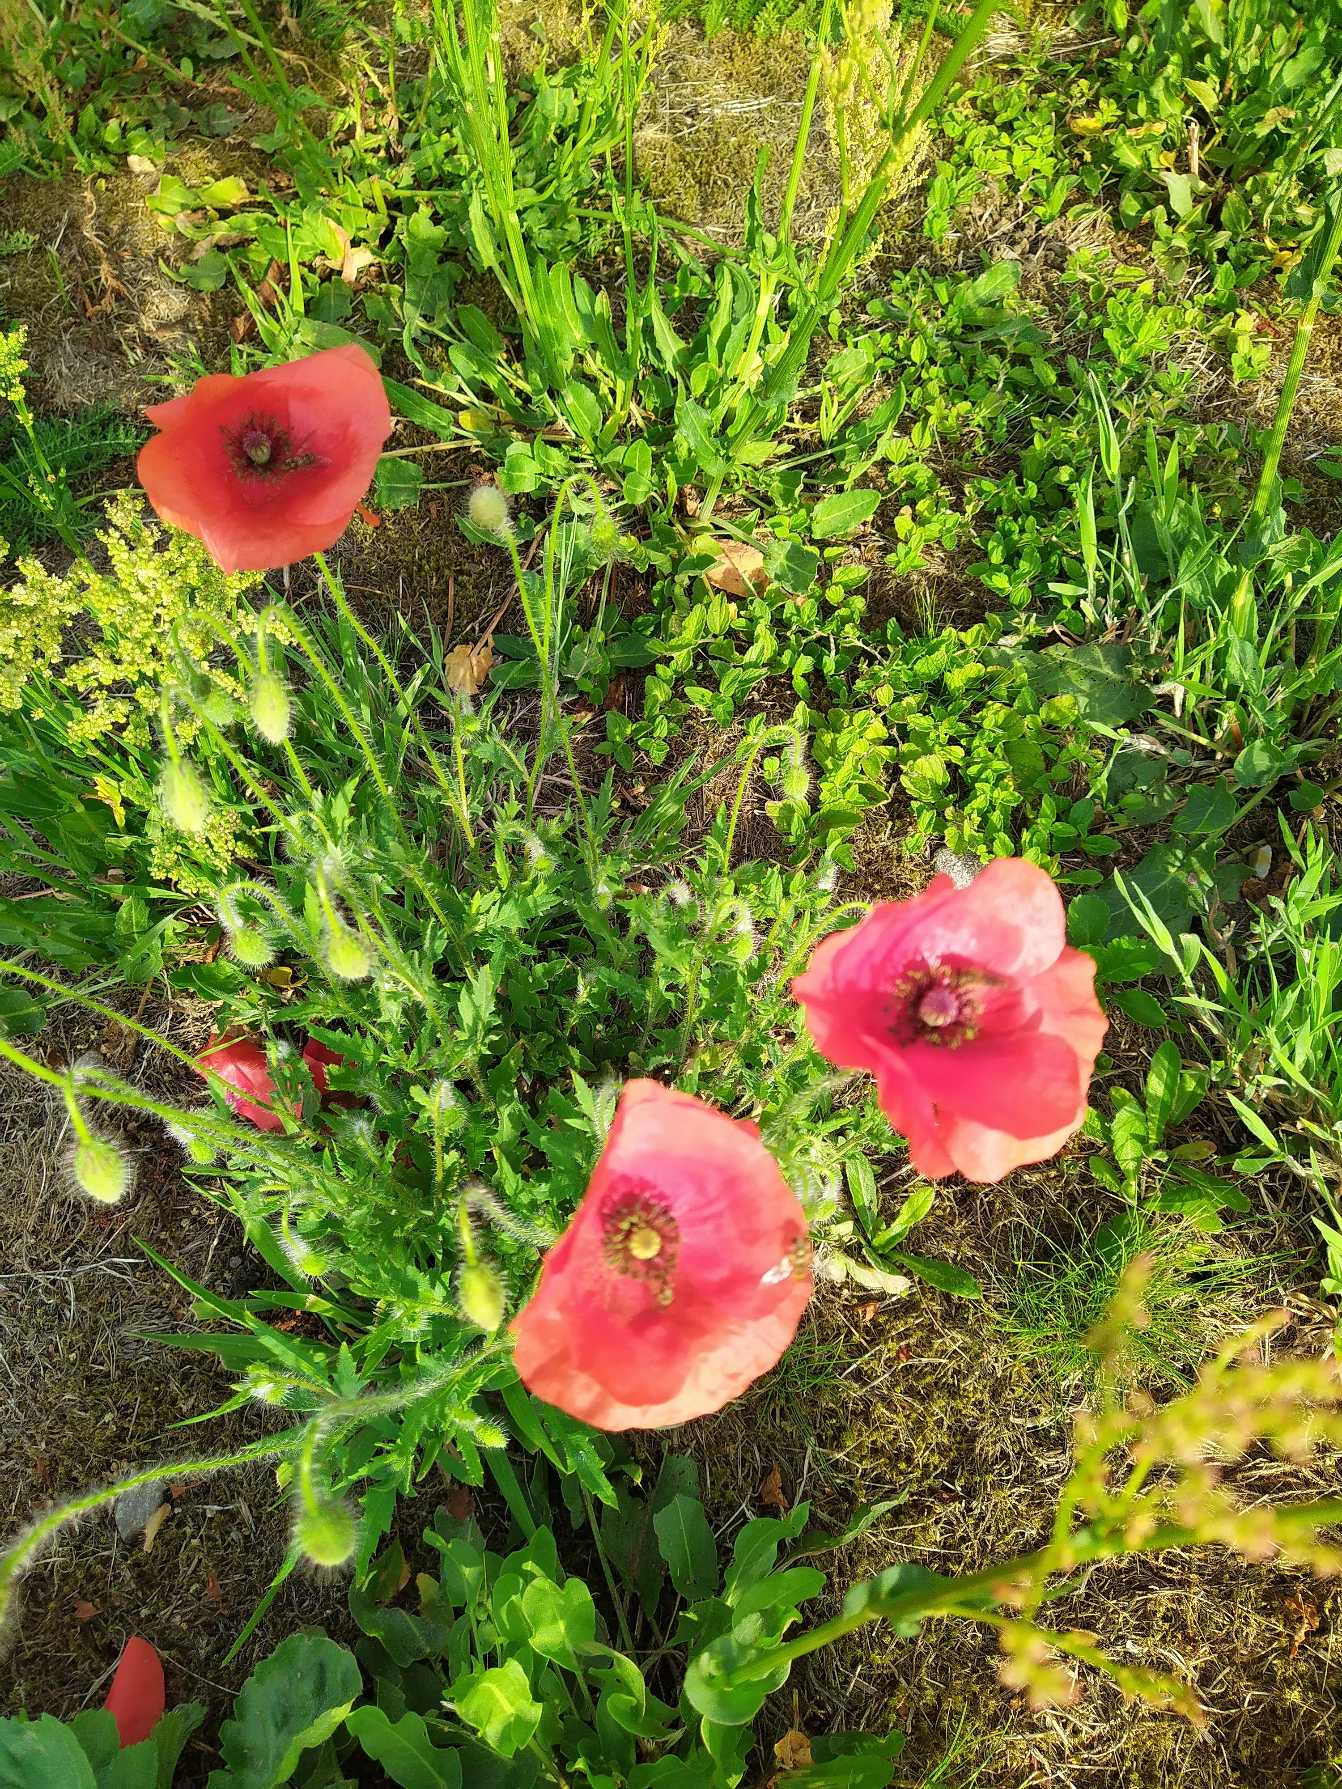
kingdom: Plantae
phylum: Tracheophyta
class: Magnoliopsida
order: Ranunculales
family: Papaveraceae
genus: Papaver
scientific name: Papaver rhoeas
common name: Korn-valmue
